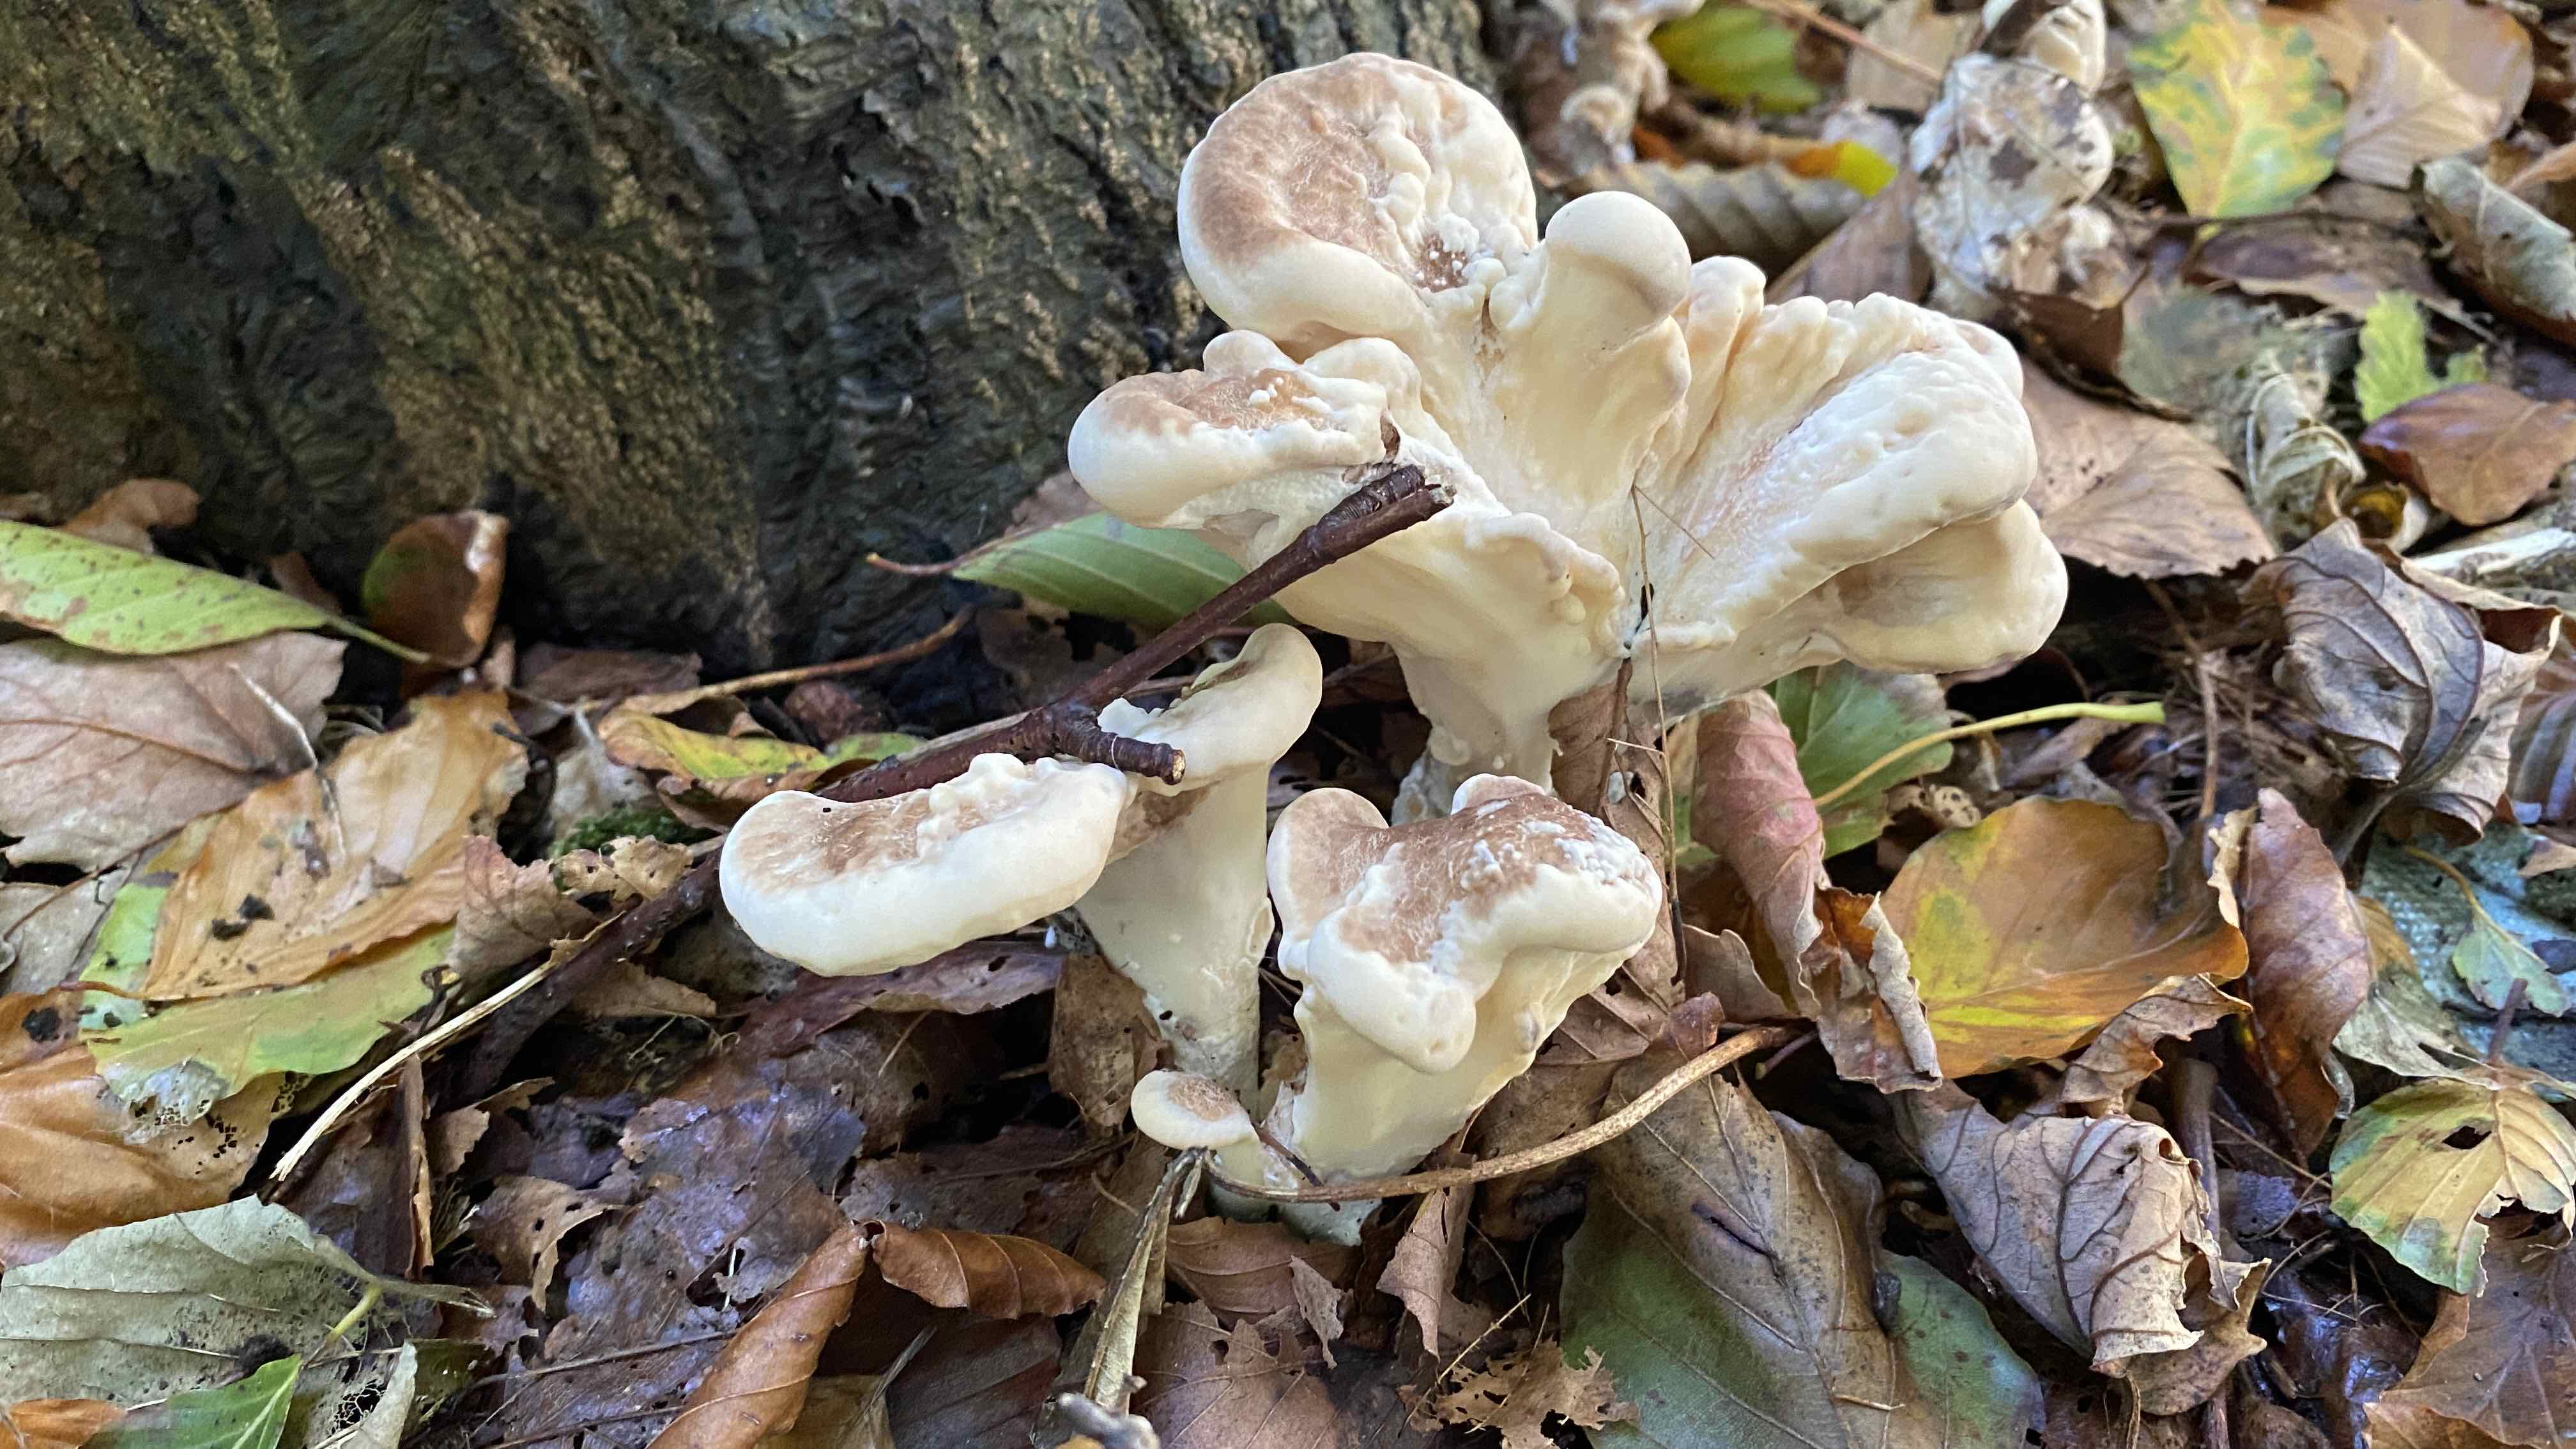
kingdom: Fungi
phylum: Basidiomycota
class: Agaricomycetes
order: Polyporales
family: Meripilaceae
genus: Meripilus
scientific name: Meripilus giganteus
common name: kæmpeporesvamp
